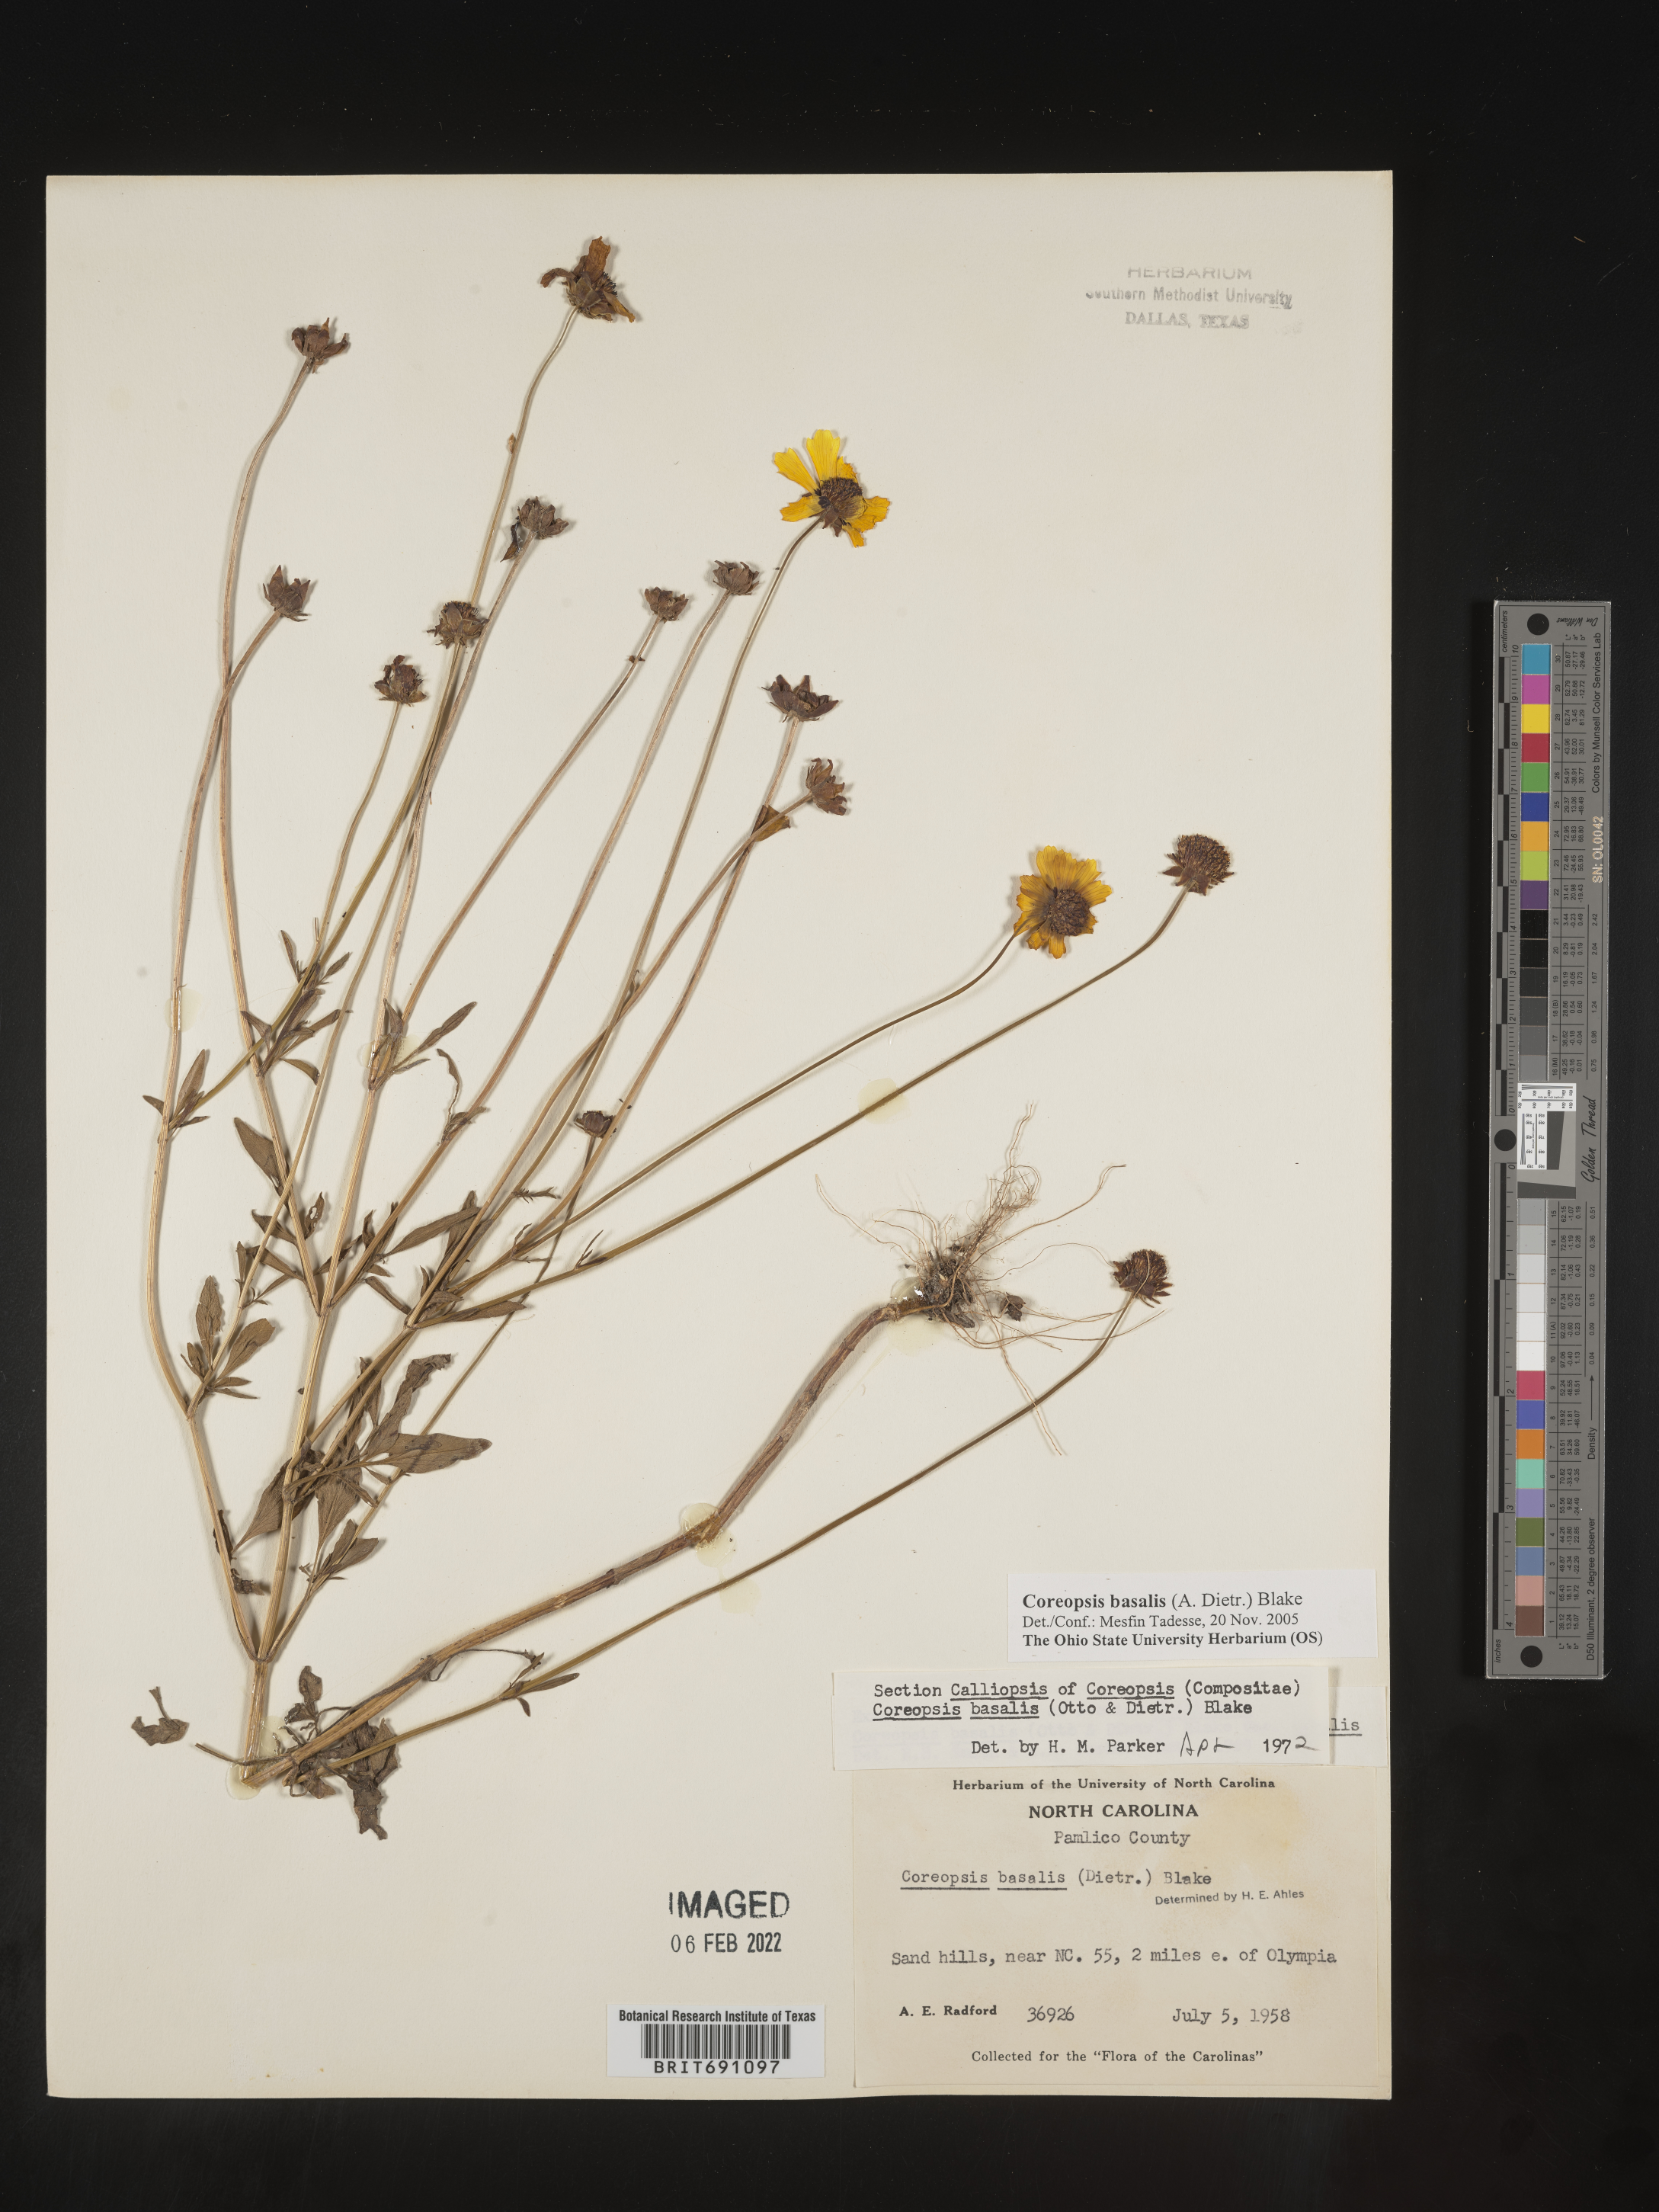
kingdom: Plantae
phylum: Tracheophyta
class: Magnoliopsida
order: Asterales
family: Asteraceae
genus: Coreopsis
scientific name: Coreopsis
